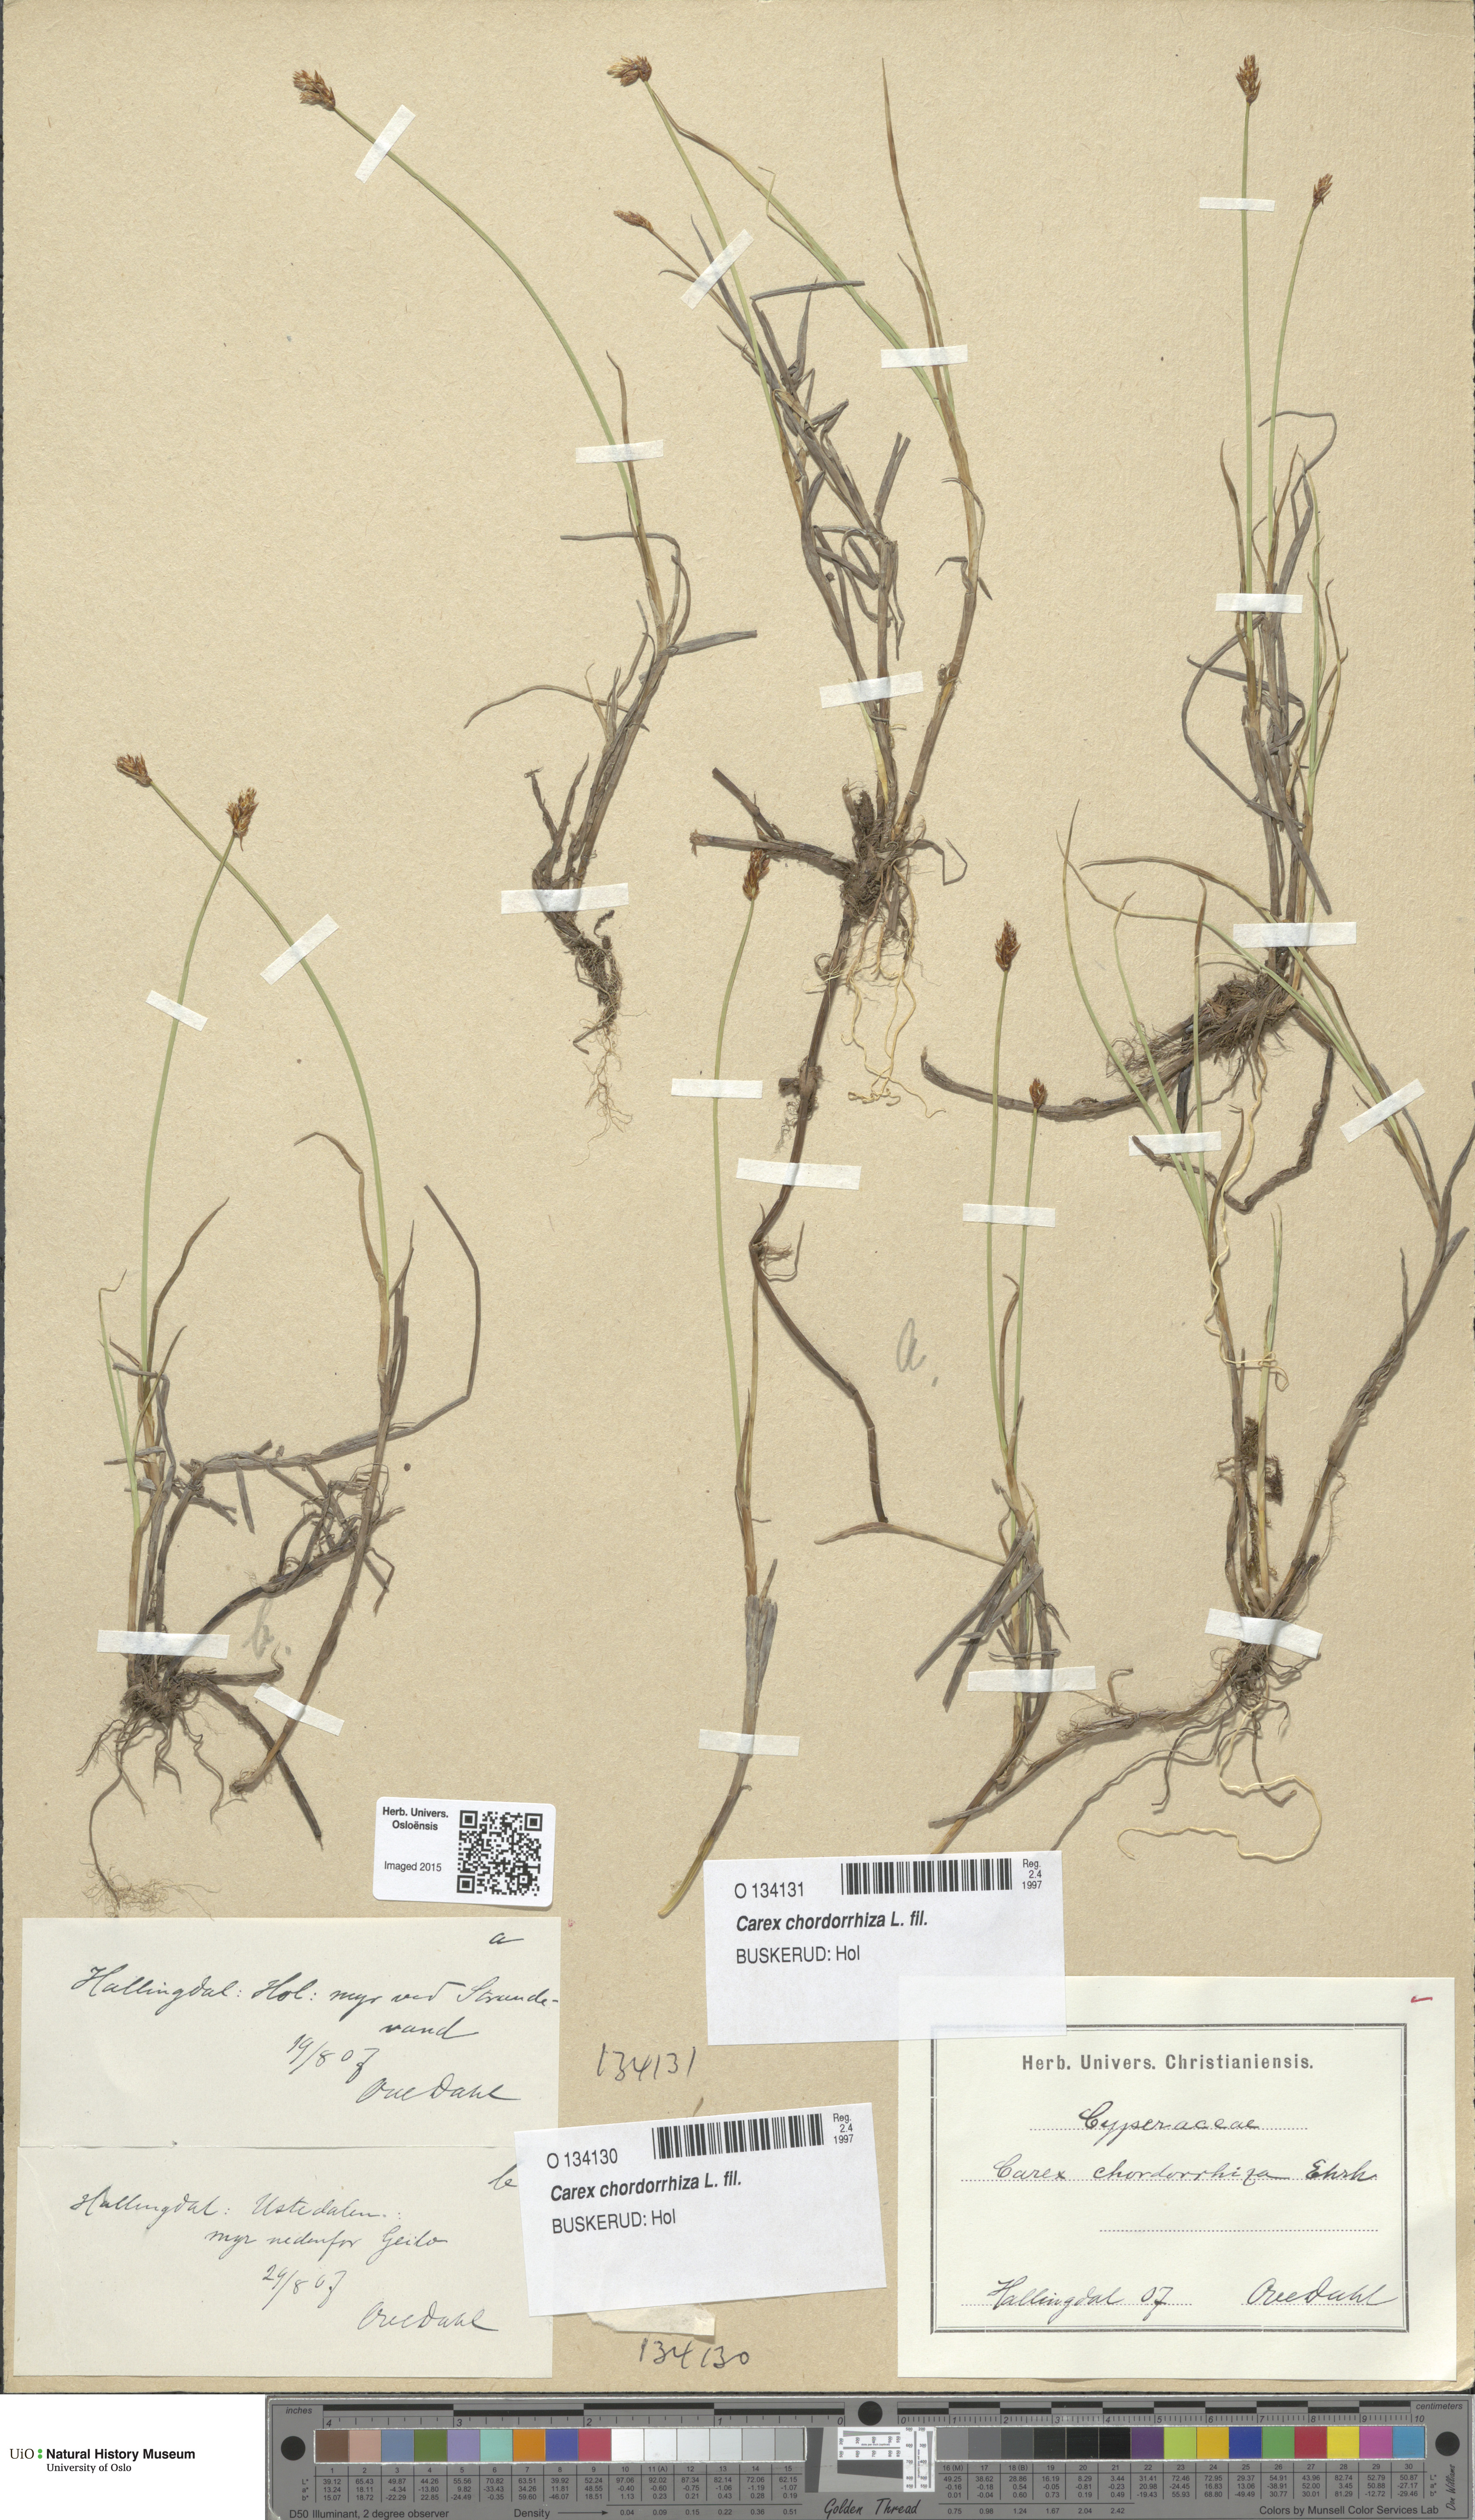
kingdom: Plantae
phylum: Tracheophyta
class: Liliopsida
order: Poales
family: Cyperaceae
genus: Carex
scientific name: Carex chordorrhiza
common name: String sedge
